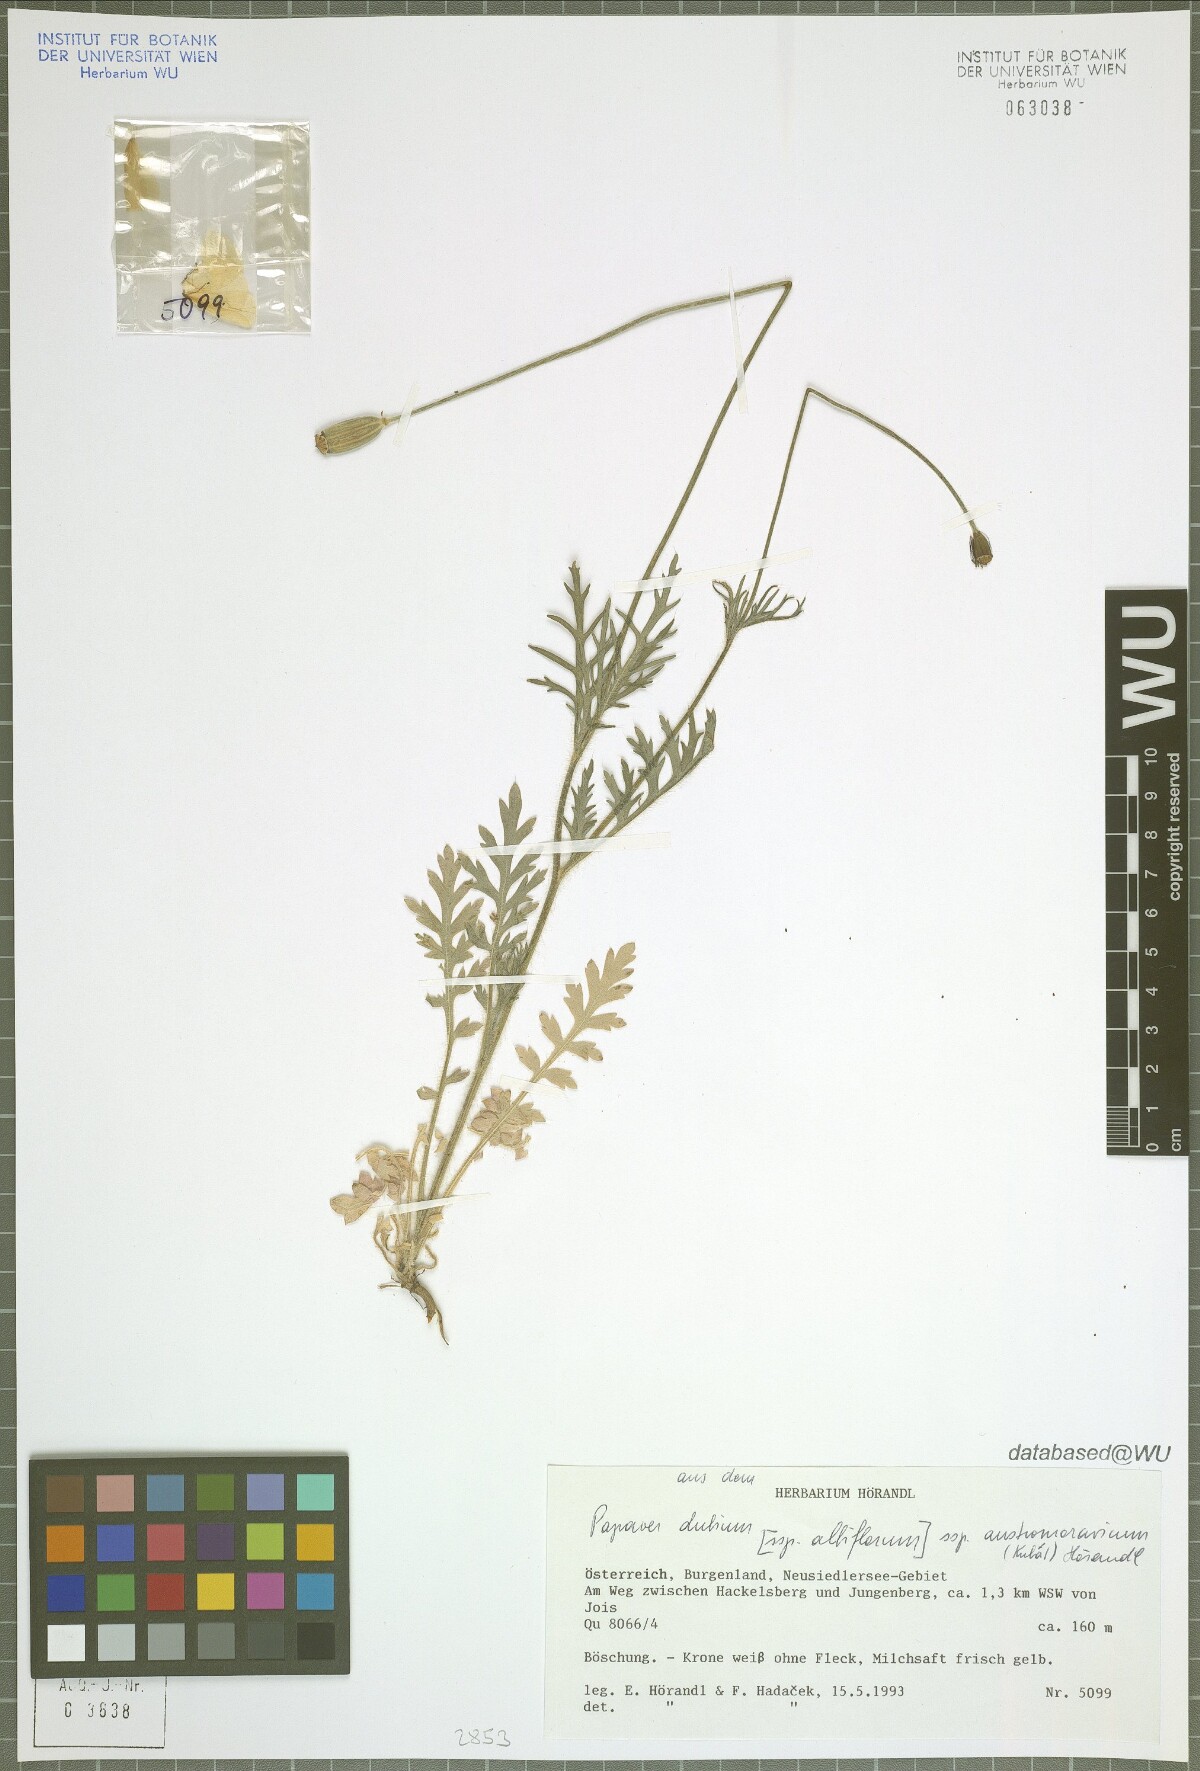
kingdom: Plantae
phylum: Tracheophyta
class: Magnoliopsida
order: Ranunculales
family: Papaveraceae
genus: Papaver
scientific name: Papaver dubium
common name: Long-headed poppy
